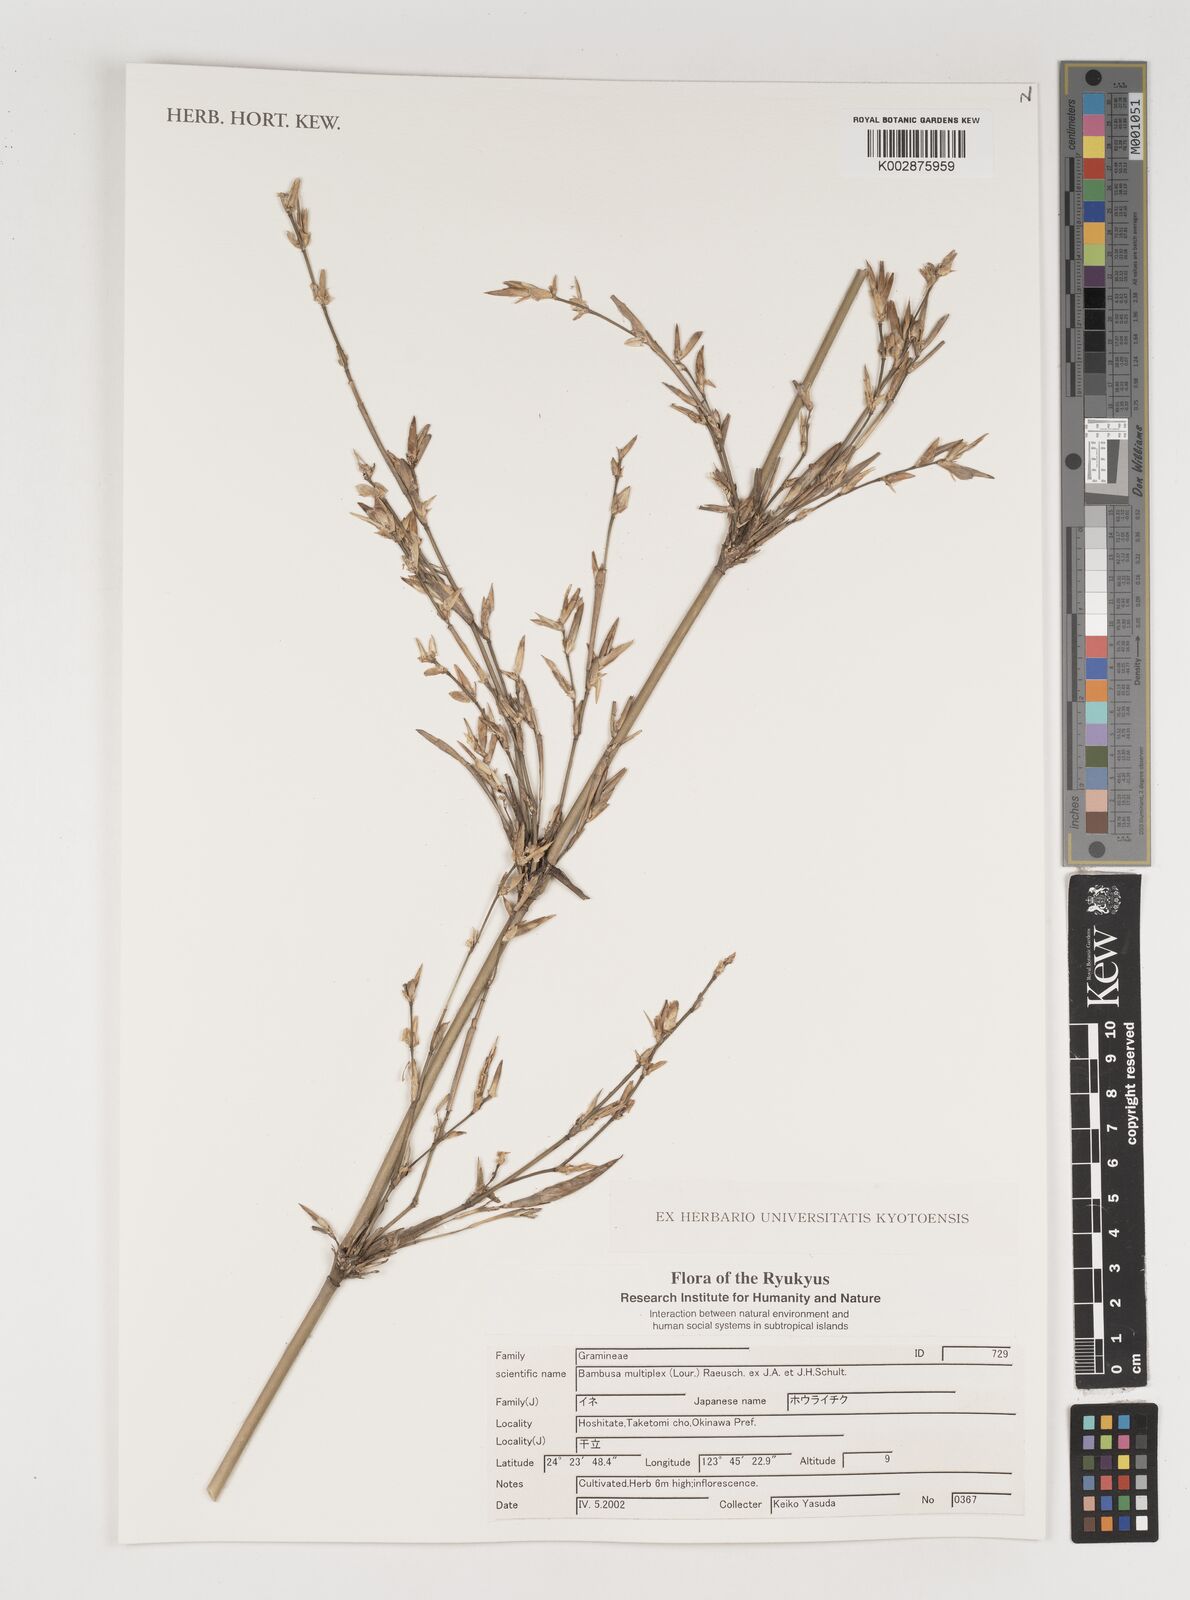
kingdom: Plantae
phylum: Tracheophyta
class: Liliopsida
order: Poales
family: Poaceae
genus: Bambusa
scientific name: Bambusa multiplex
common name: Hedge bamboo
